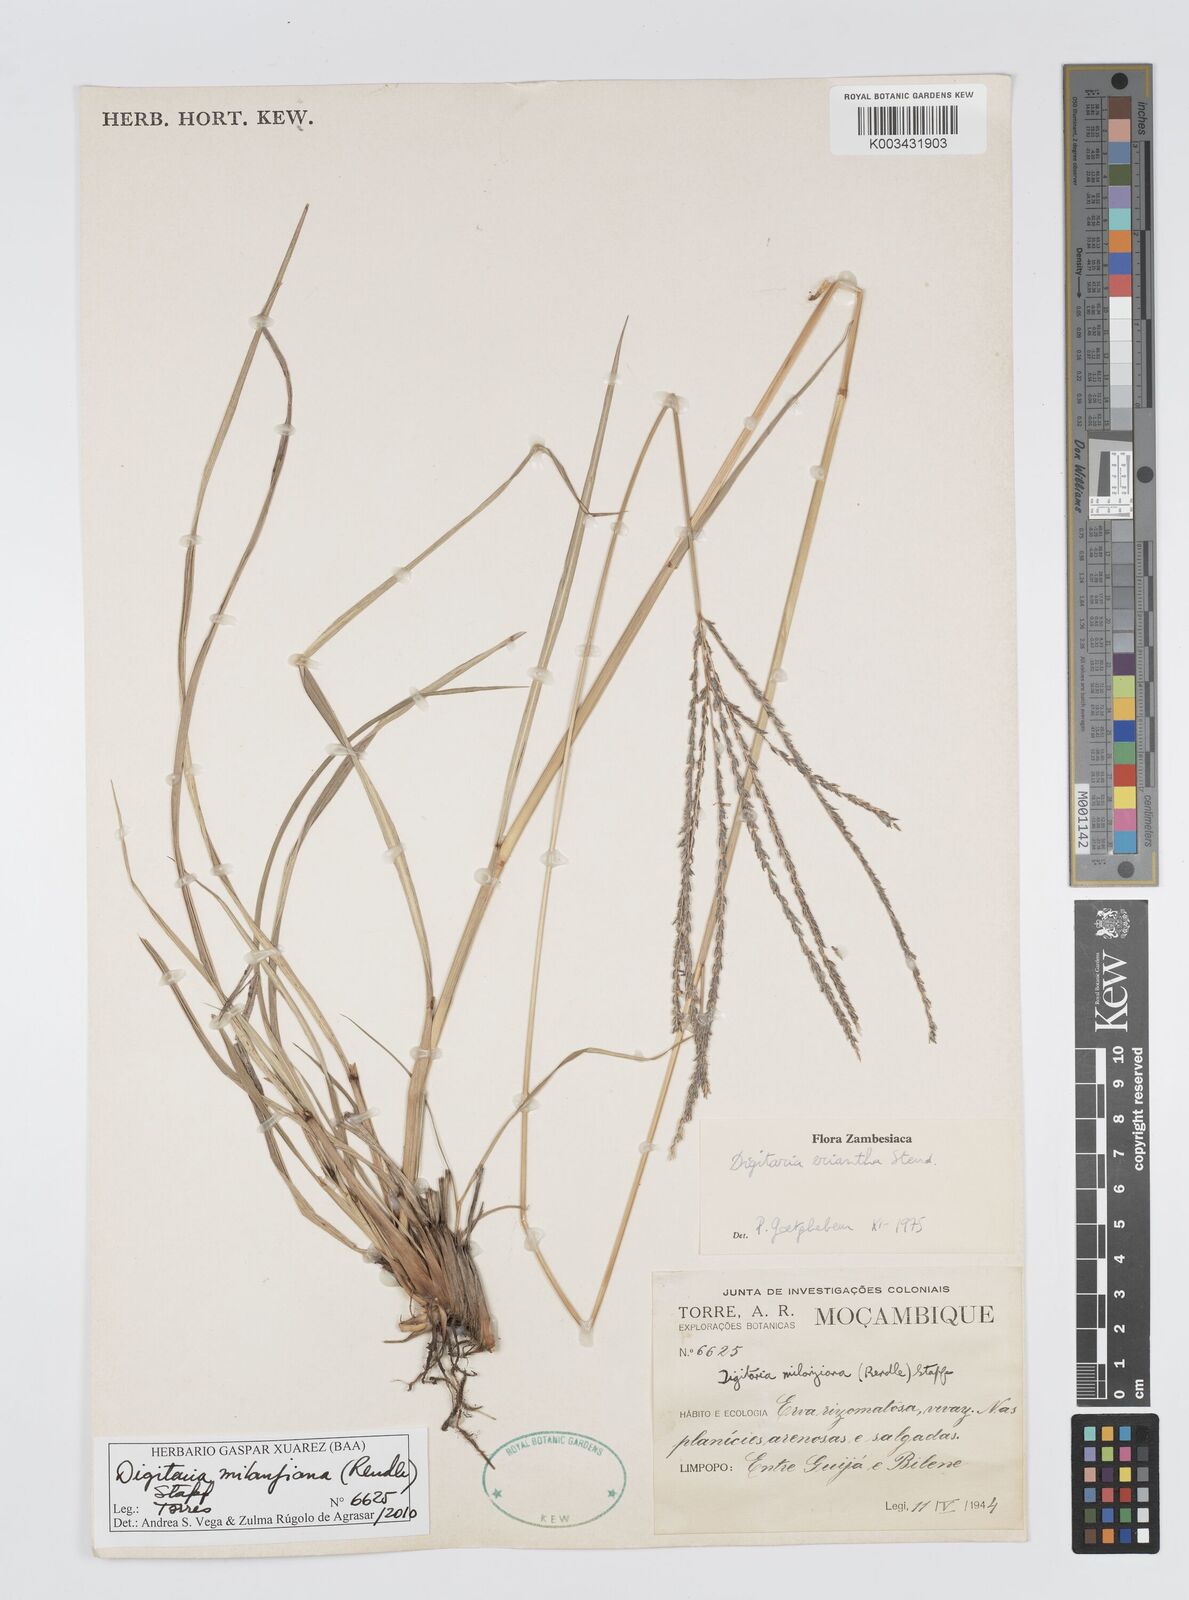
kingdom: Plantae
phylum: Tracheophyta
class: Liliopsida
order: Poales
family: Poaceae
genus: Digitaria
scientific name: Digitaria milanjiana
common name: Madagascar crabgrass
